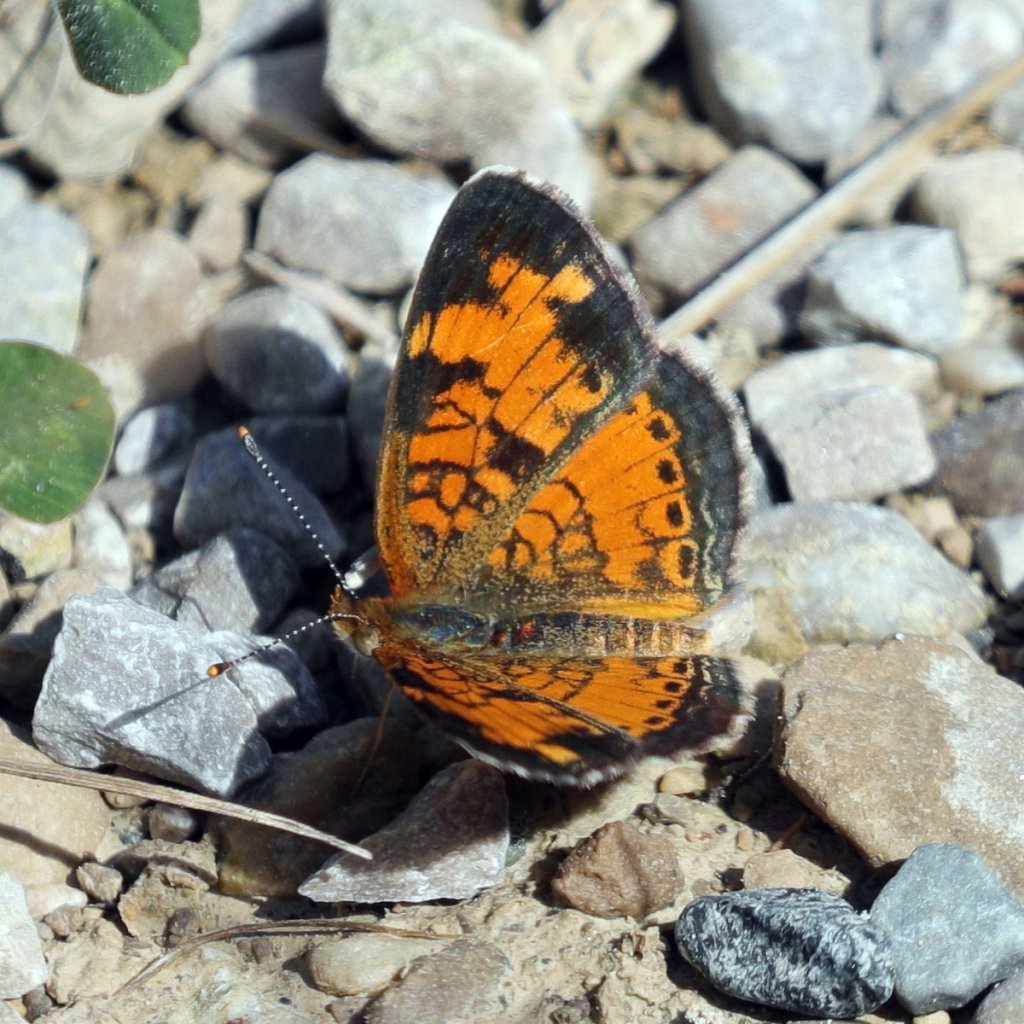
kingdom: Animalia
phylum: Arthropoda
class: Insecta
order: Lepidoptera
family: Nymphalidae
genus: Phyciodes
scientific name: Phyciodes tharos
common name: Northern Crescent
